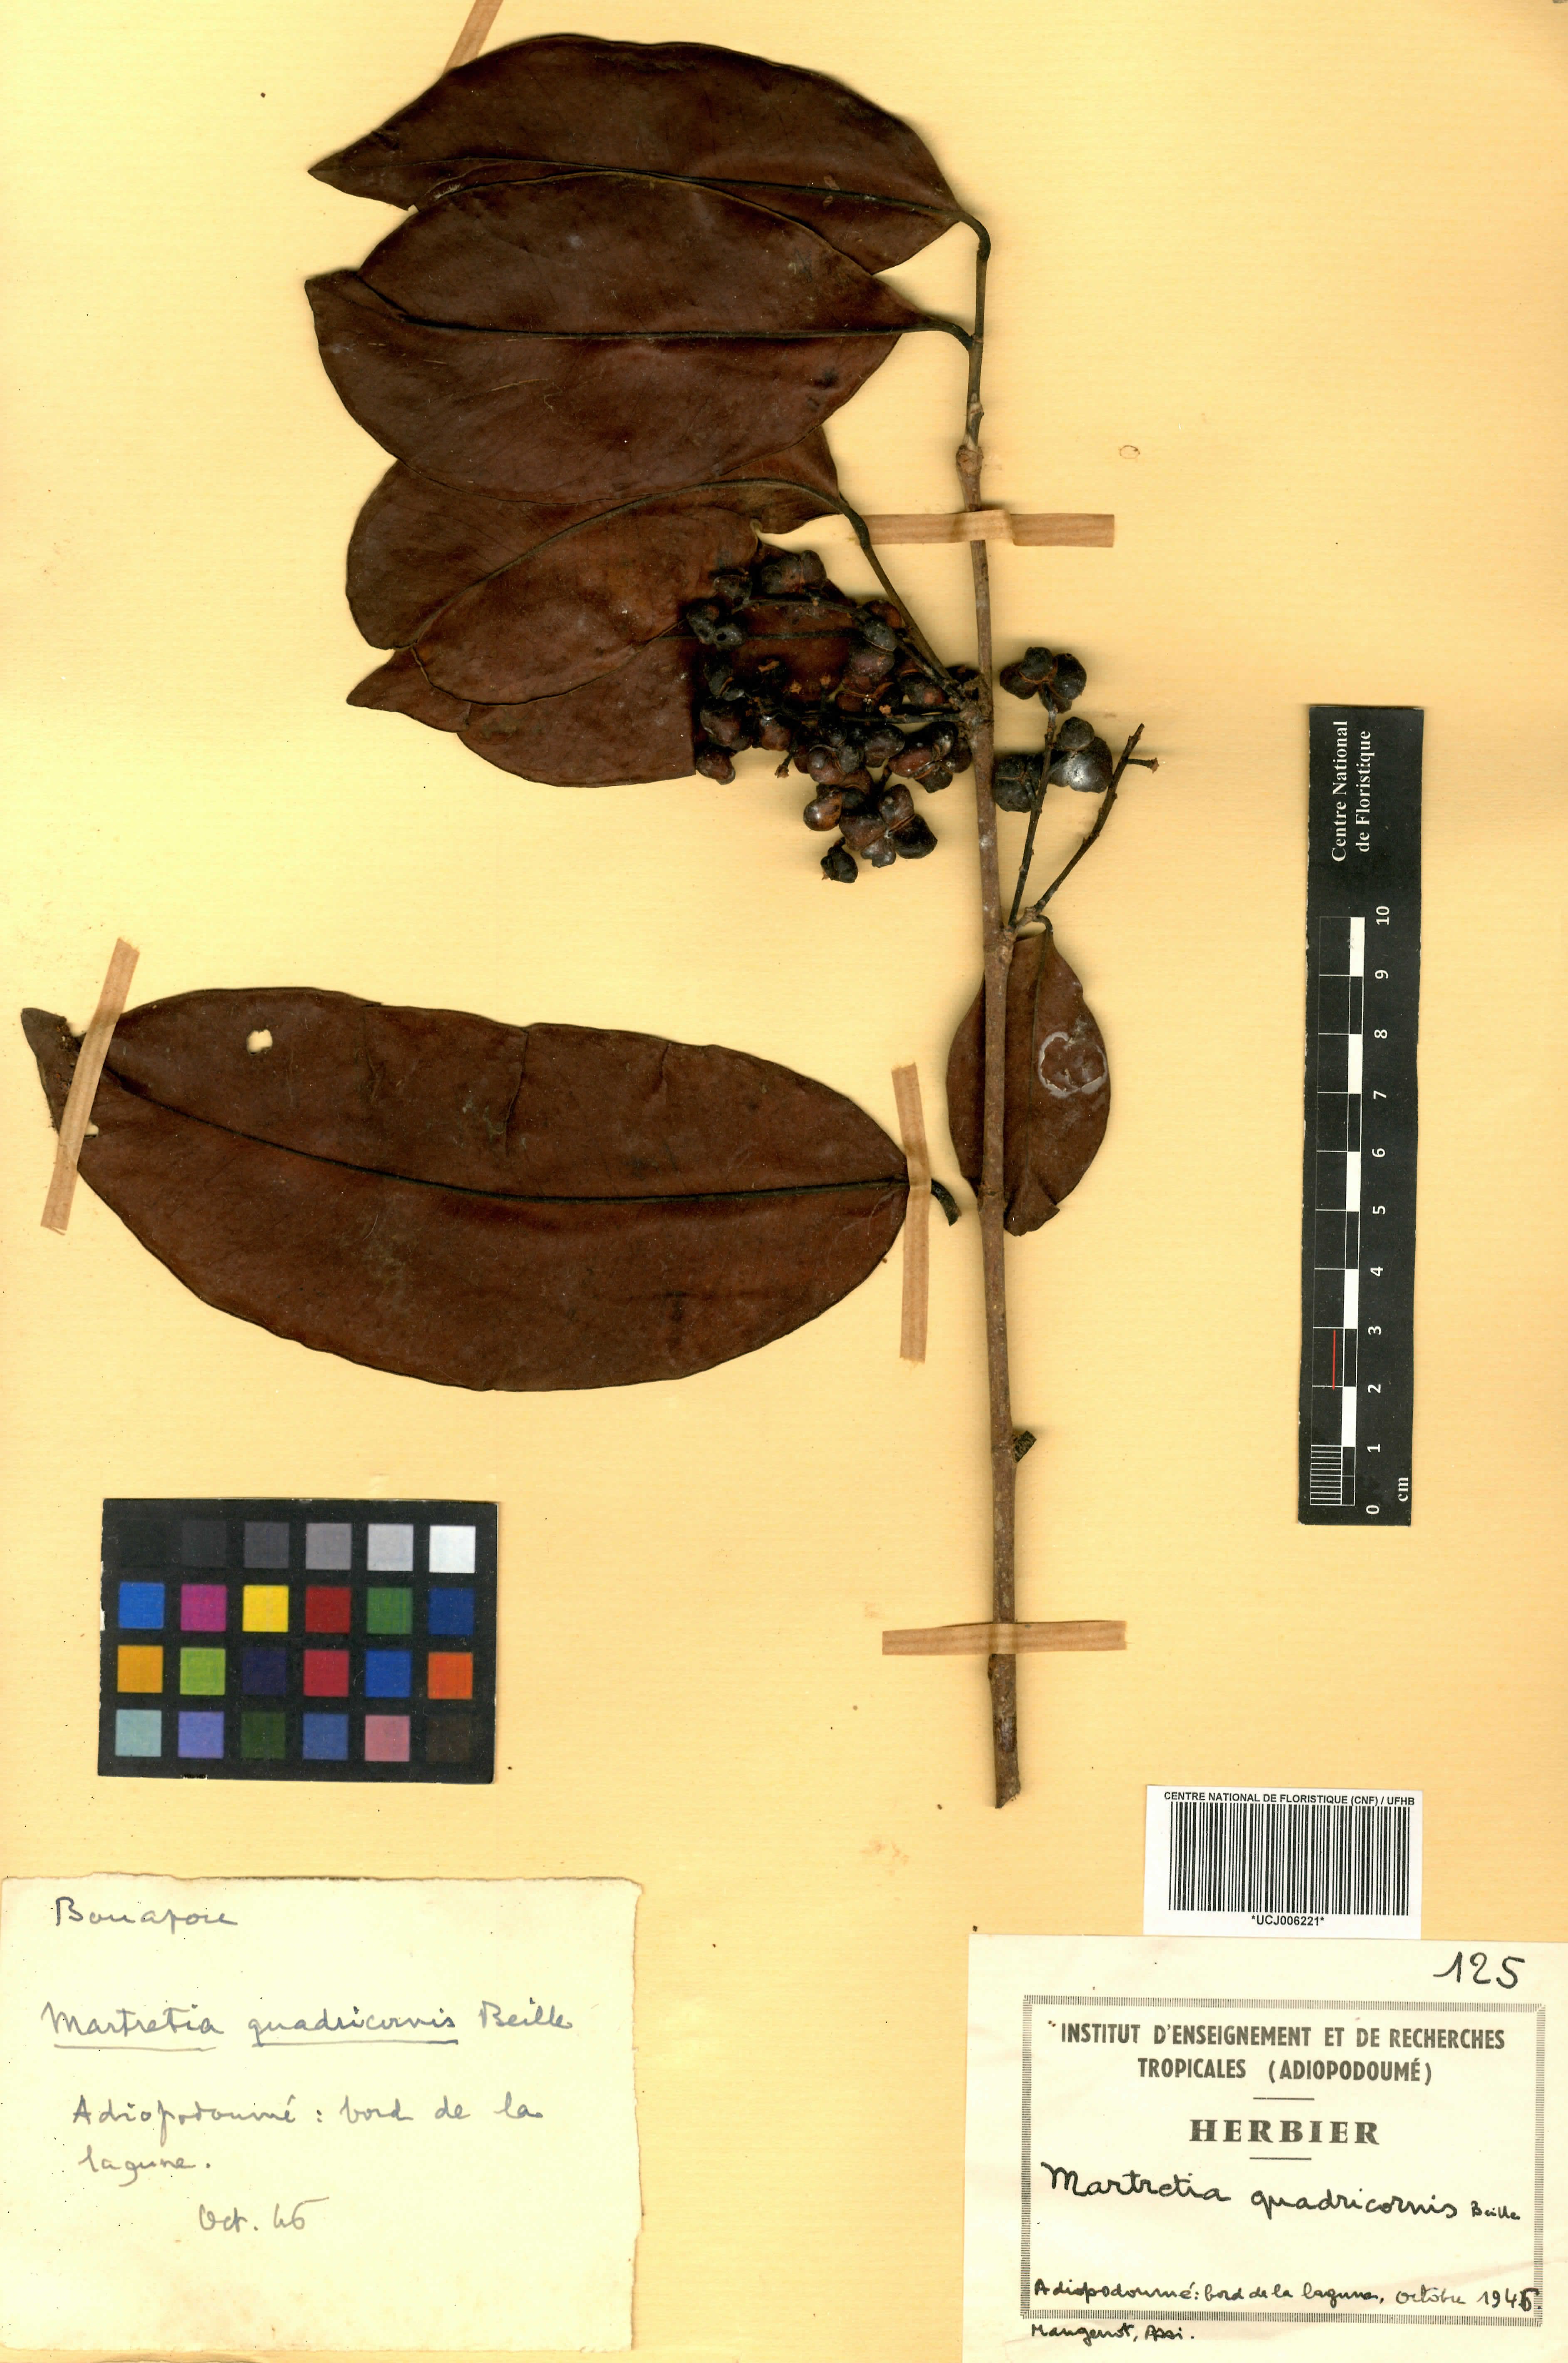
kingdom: Plantae
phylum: Tracheophyta
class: Magnoliopsida
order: Malpighiales
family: Phyllanthaceae
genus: Martretia
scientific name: Martretia quadricornis
